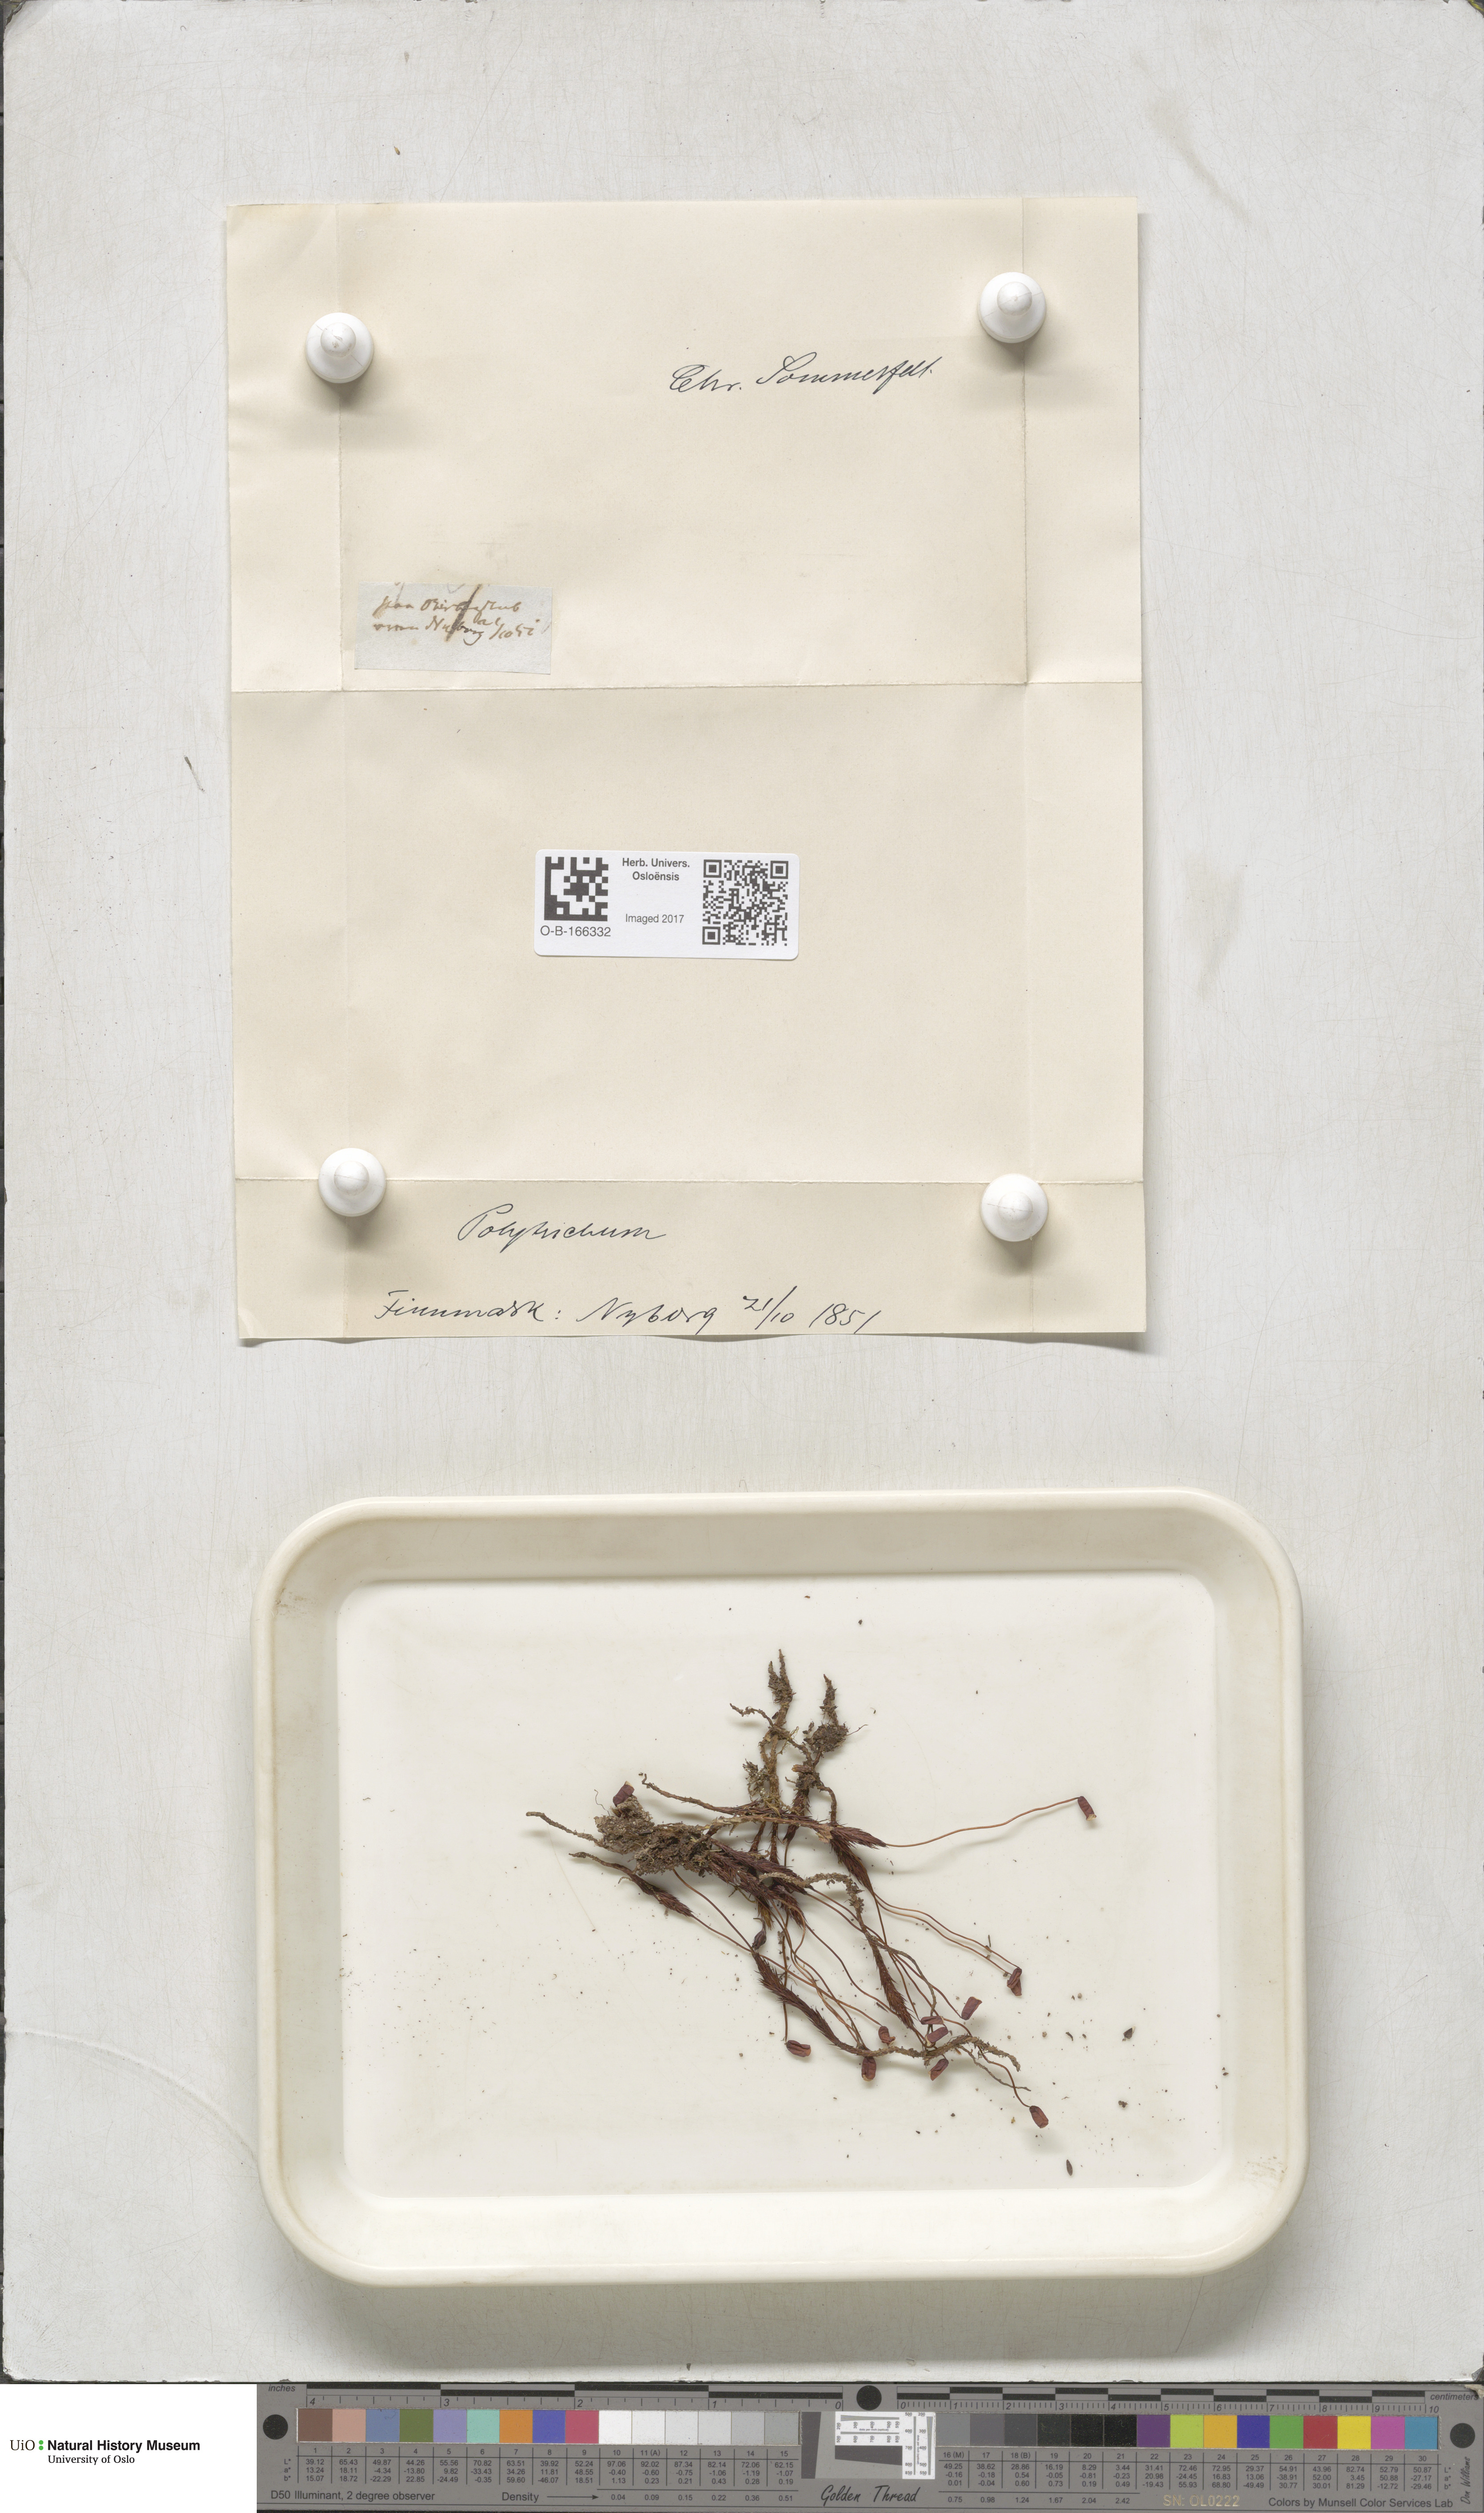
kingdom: Plantae
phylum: Bryophyta
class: Polytrichopsida
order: Polytrichales
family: Polytrichaceae
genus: Polytrichum
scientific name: Polytrichum
